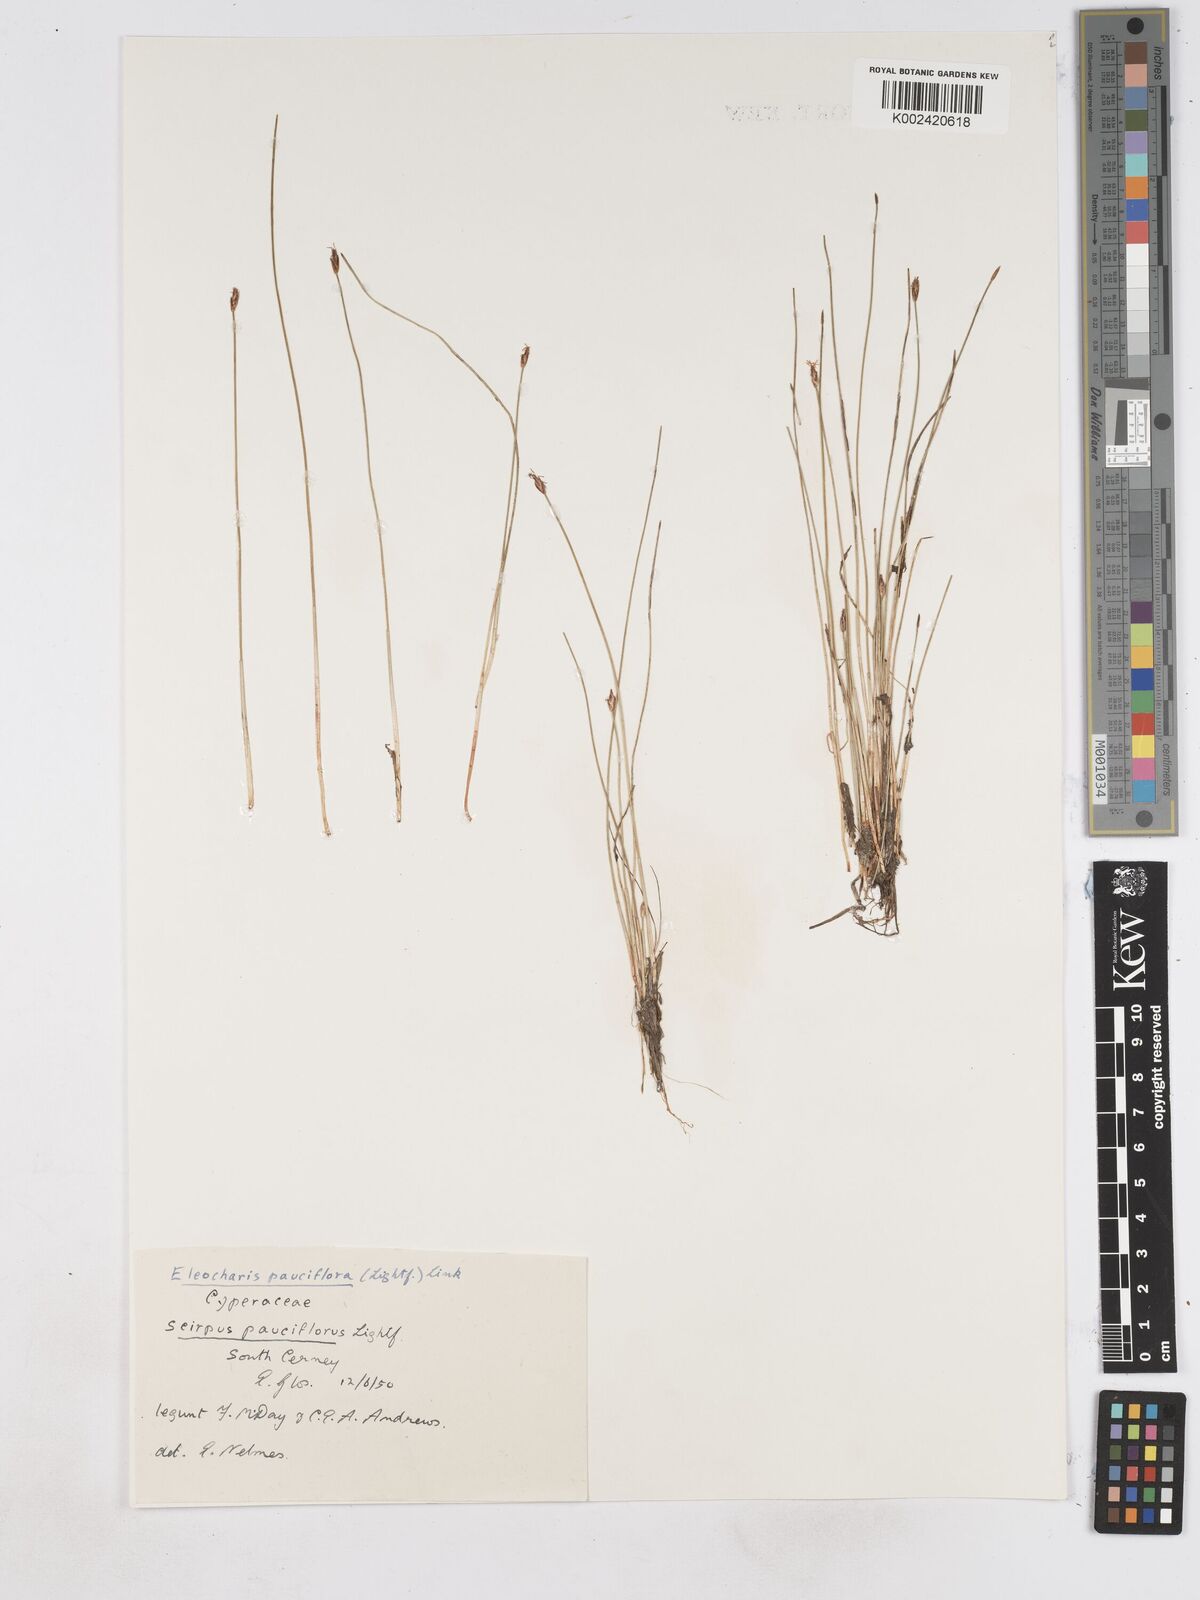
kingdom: Plantae
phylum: Tracheophyta
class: Liliopsida
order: Poales
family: Cyperaceae
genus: Eleocharis
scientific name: Eleocharis quinqueflora
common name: Few-flowered spike-rush
